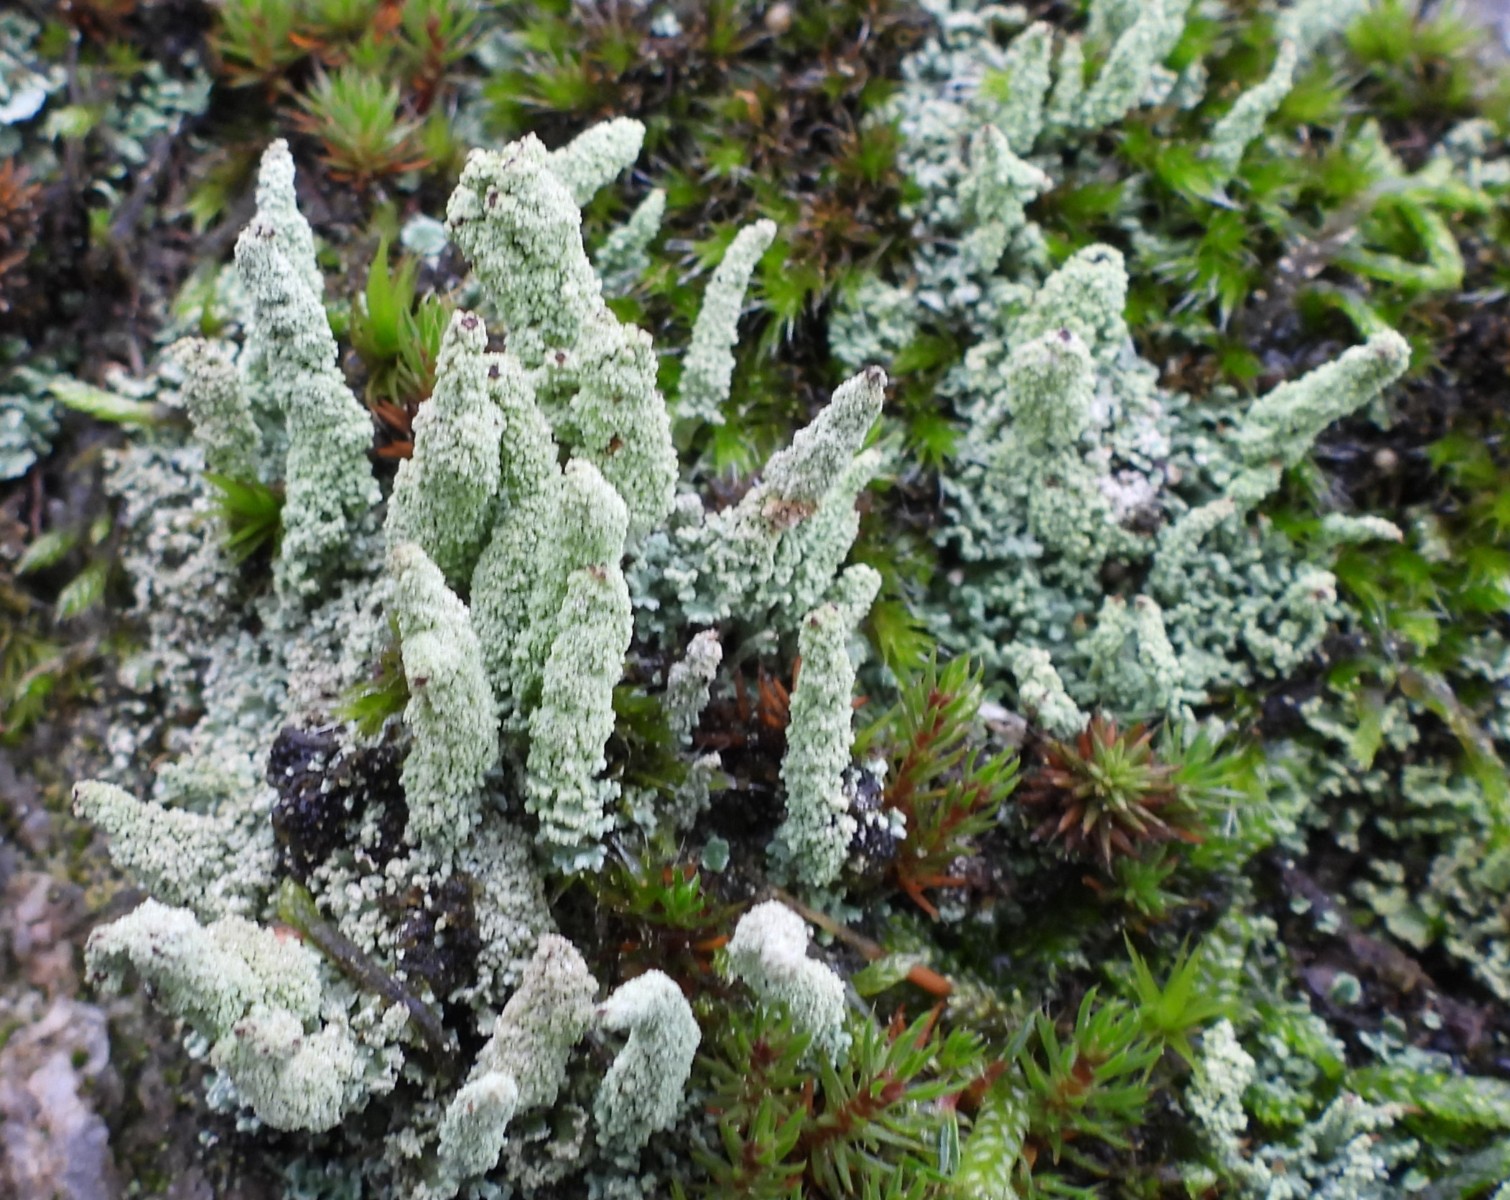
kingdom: Fungi
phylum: Ascomycota
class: Lecanoromycetes
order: Lecanorales
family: Cladoniaceae
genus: Cladonia
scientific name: Cladonia
